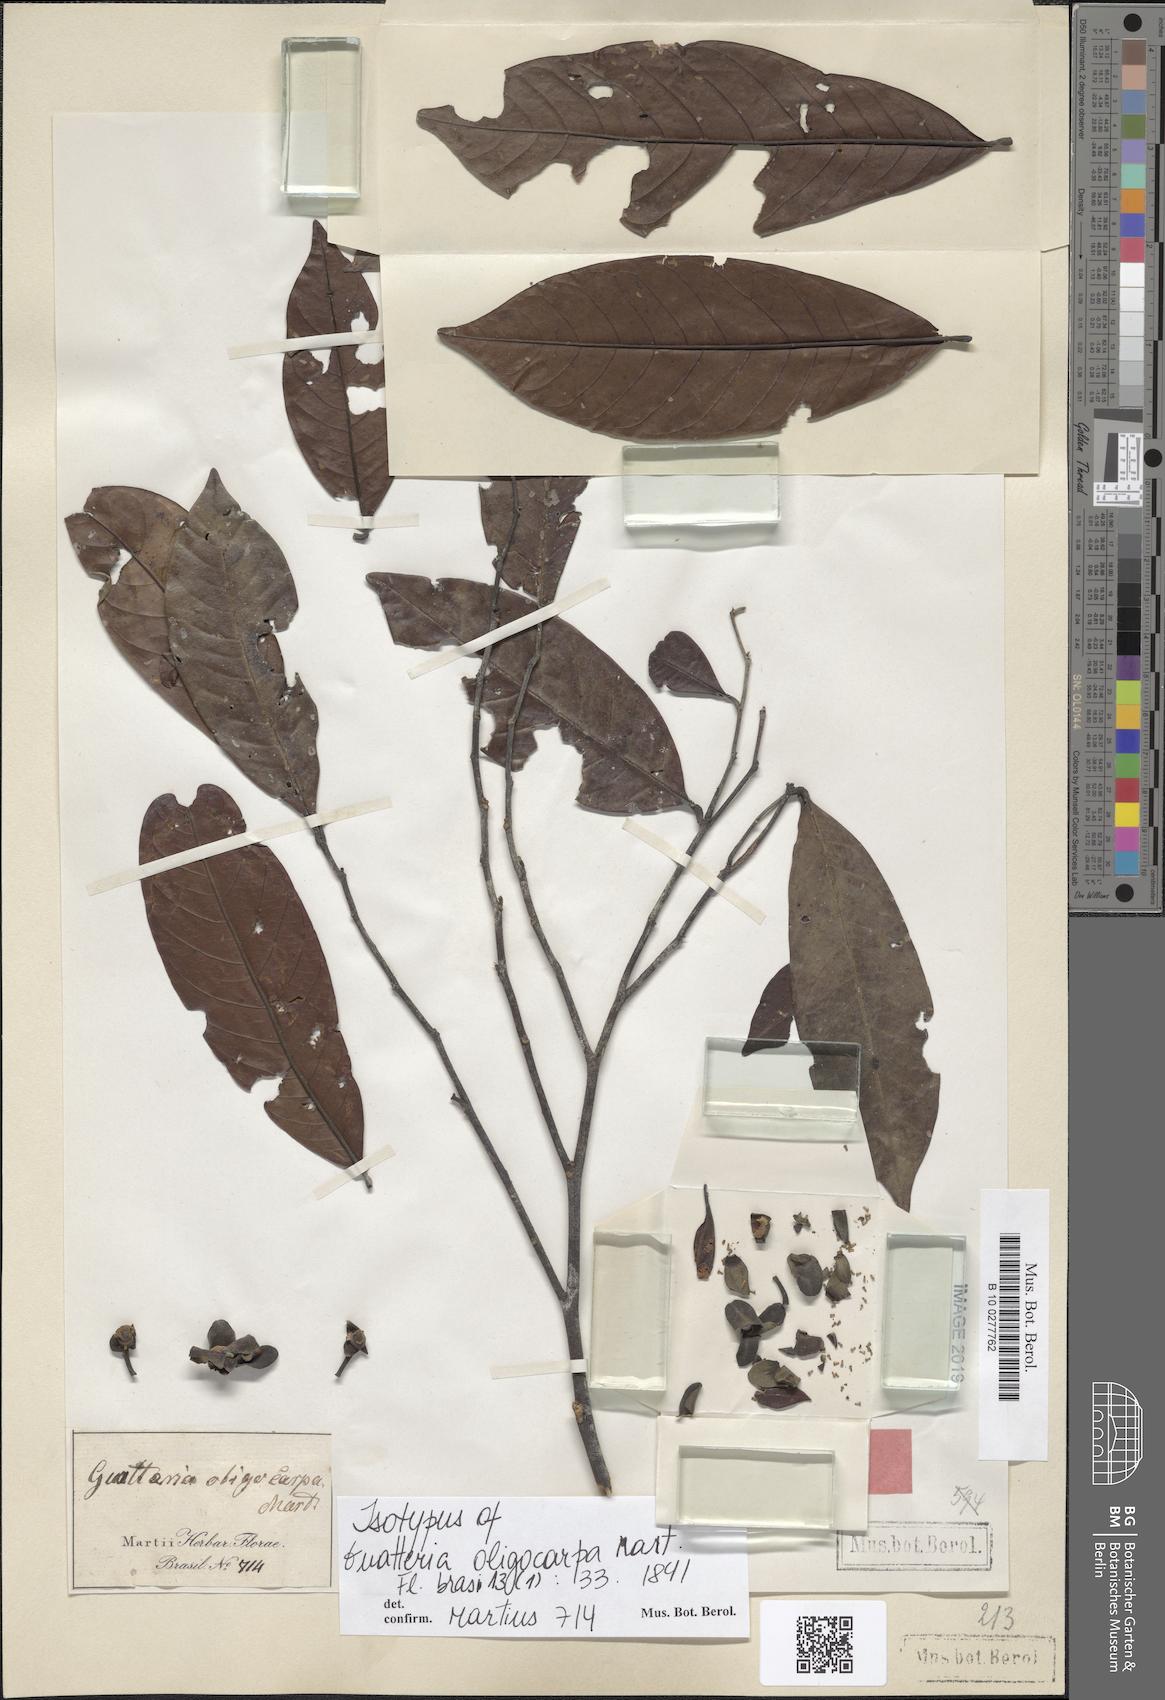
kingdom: Plantae
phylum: Tracheophyta
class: Magnoliopsida
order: Magnoliales
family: Annonaceae
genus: Guatteria
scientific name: Guatteria oligocarpa
